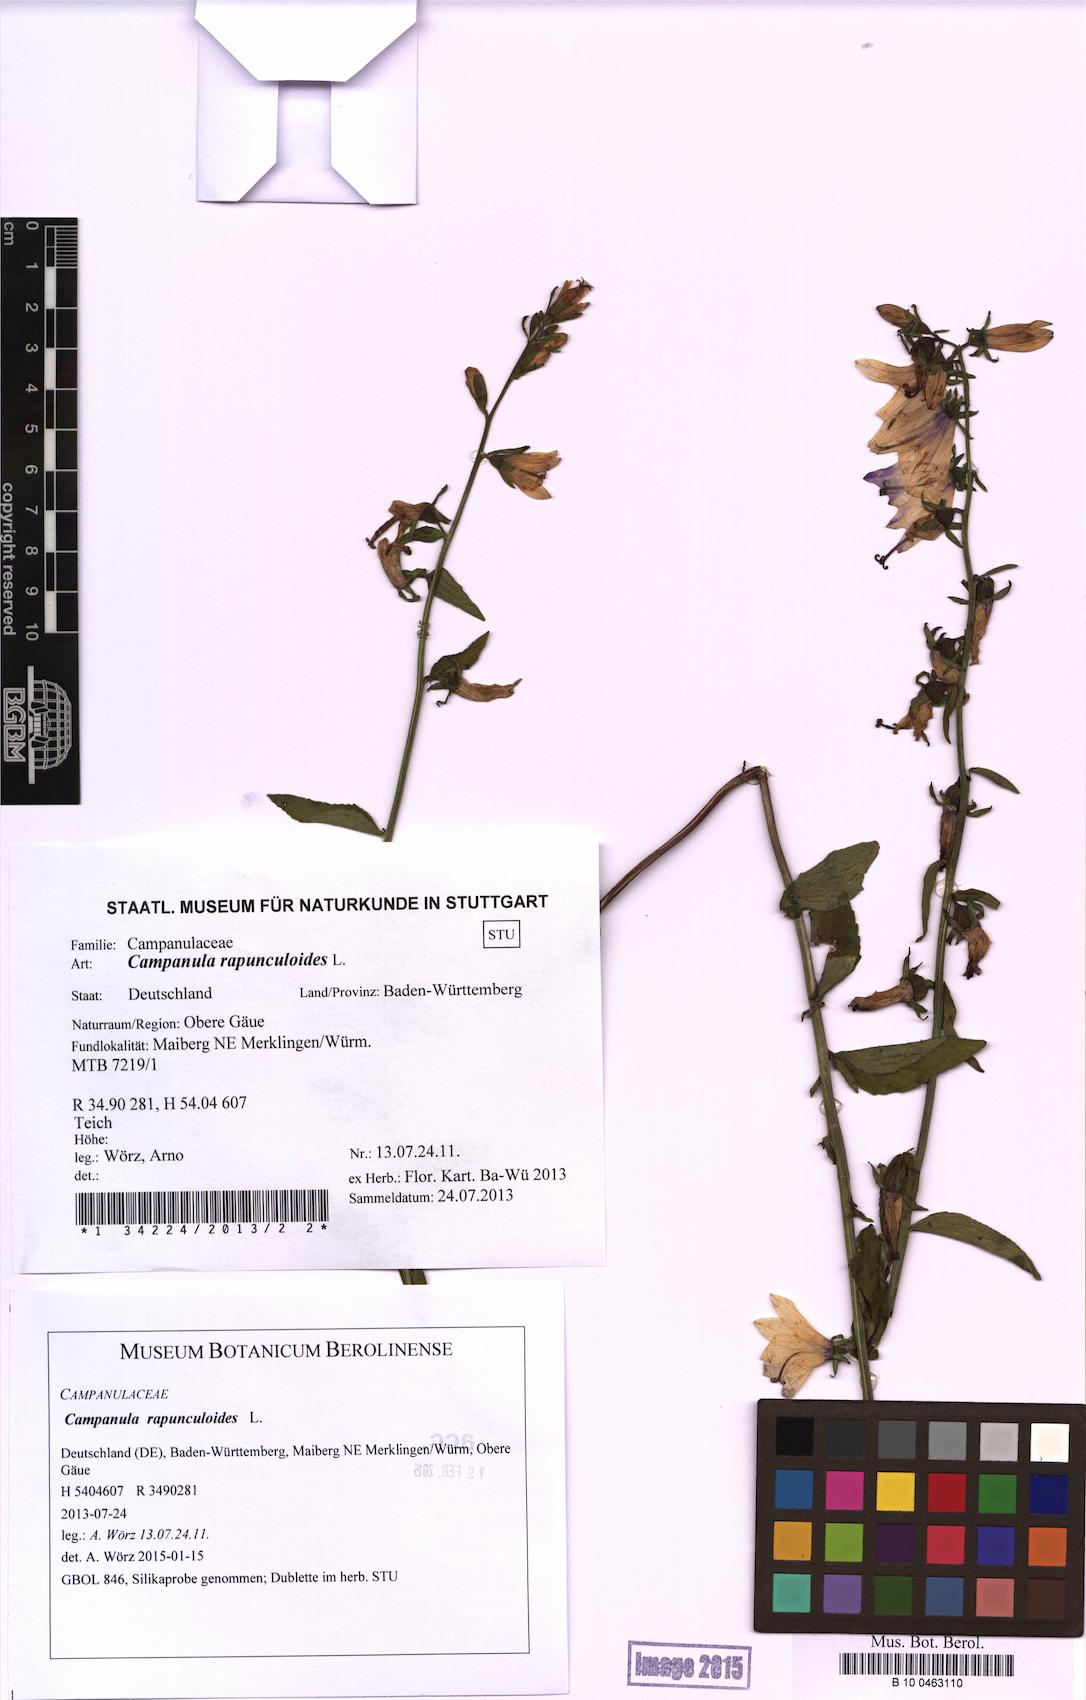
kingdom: Plantae
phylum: Tracheophyta
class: Magnoliopsida
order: Asterales
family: Campanulaceae
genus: Campanula
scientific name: Campanula rapunculoides
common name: Creeping bellflower
